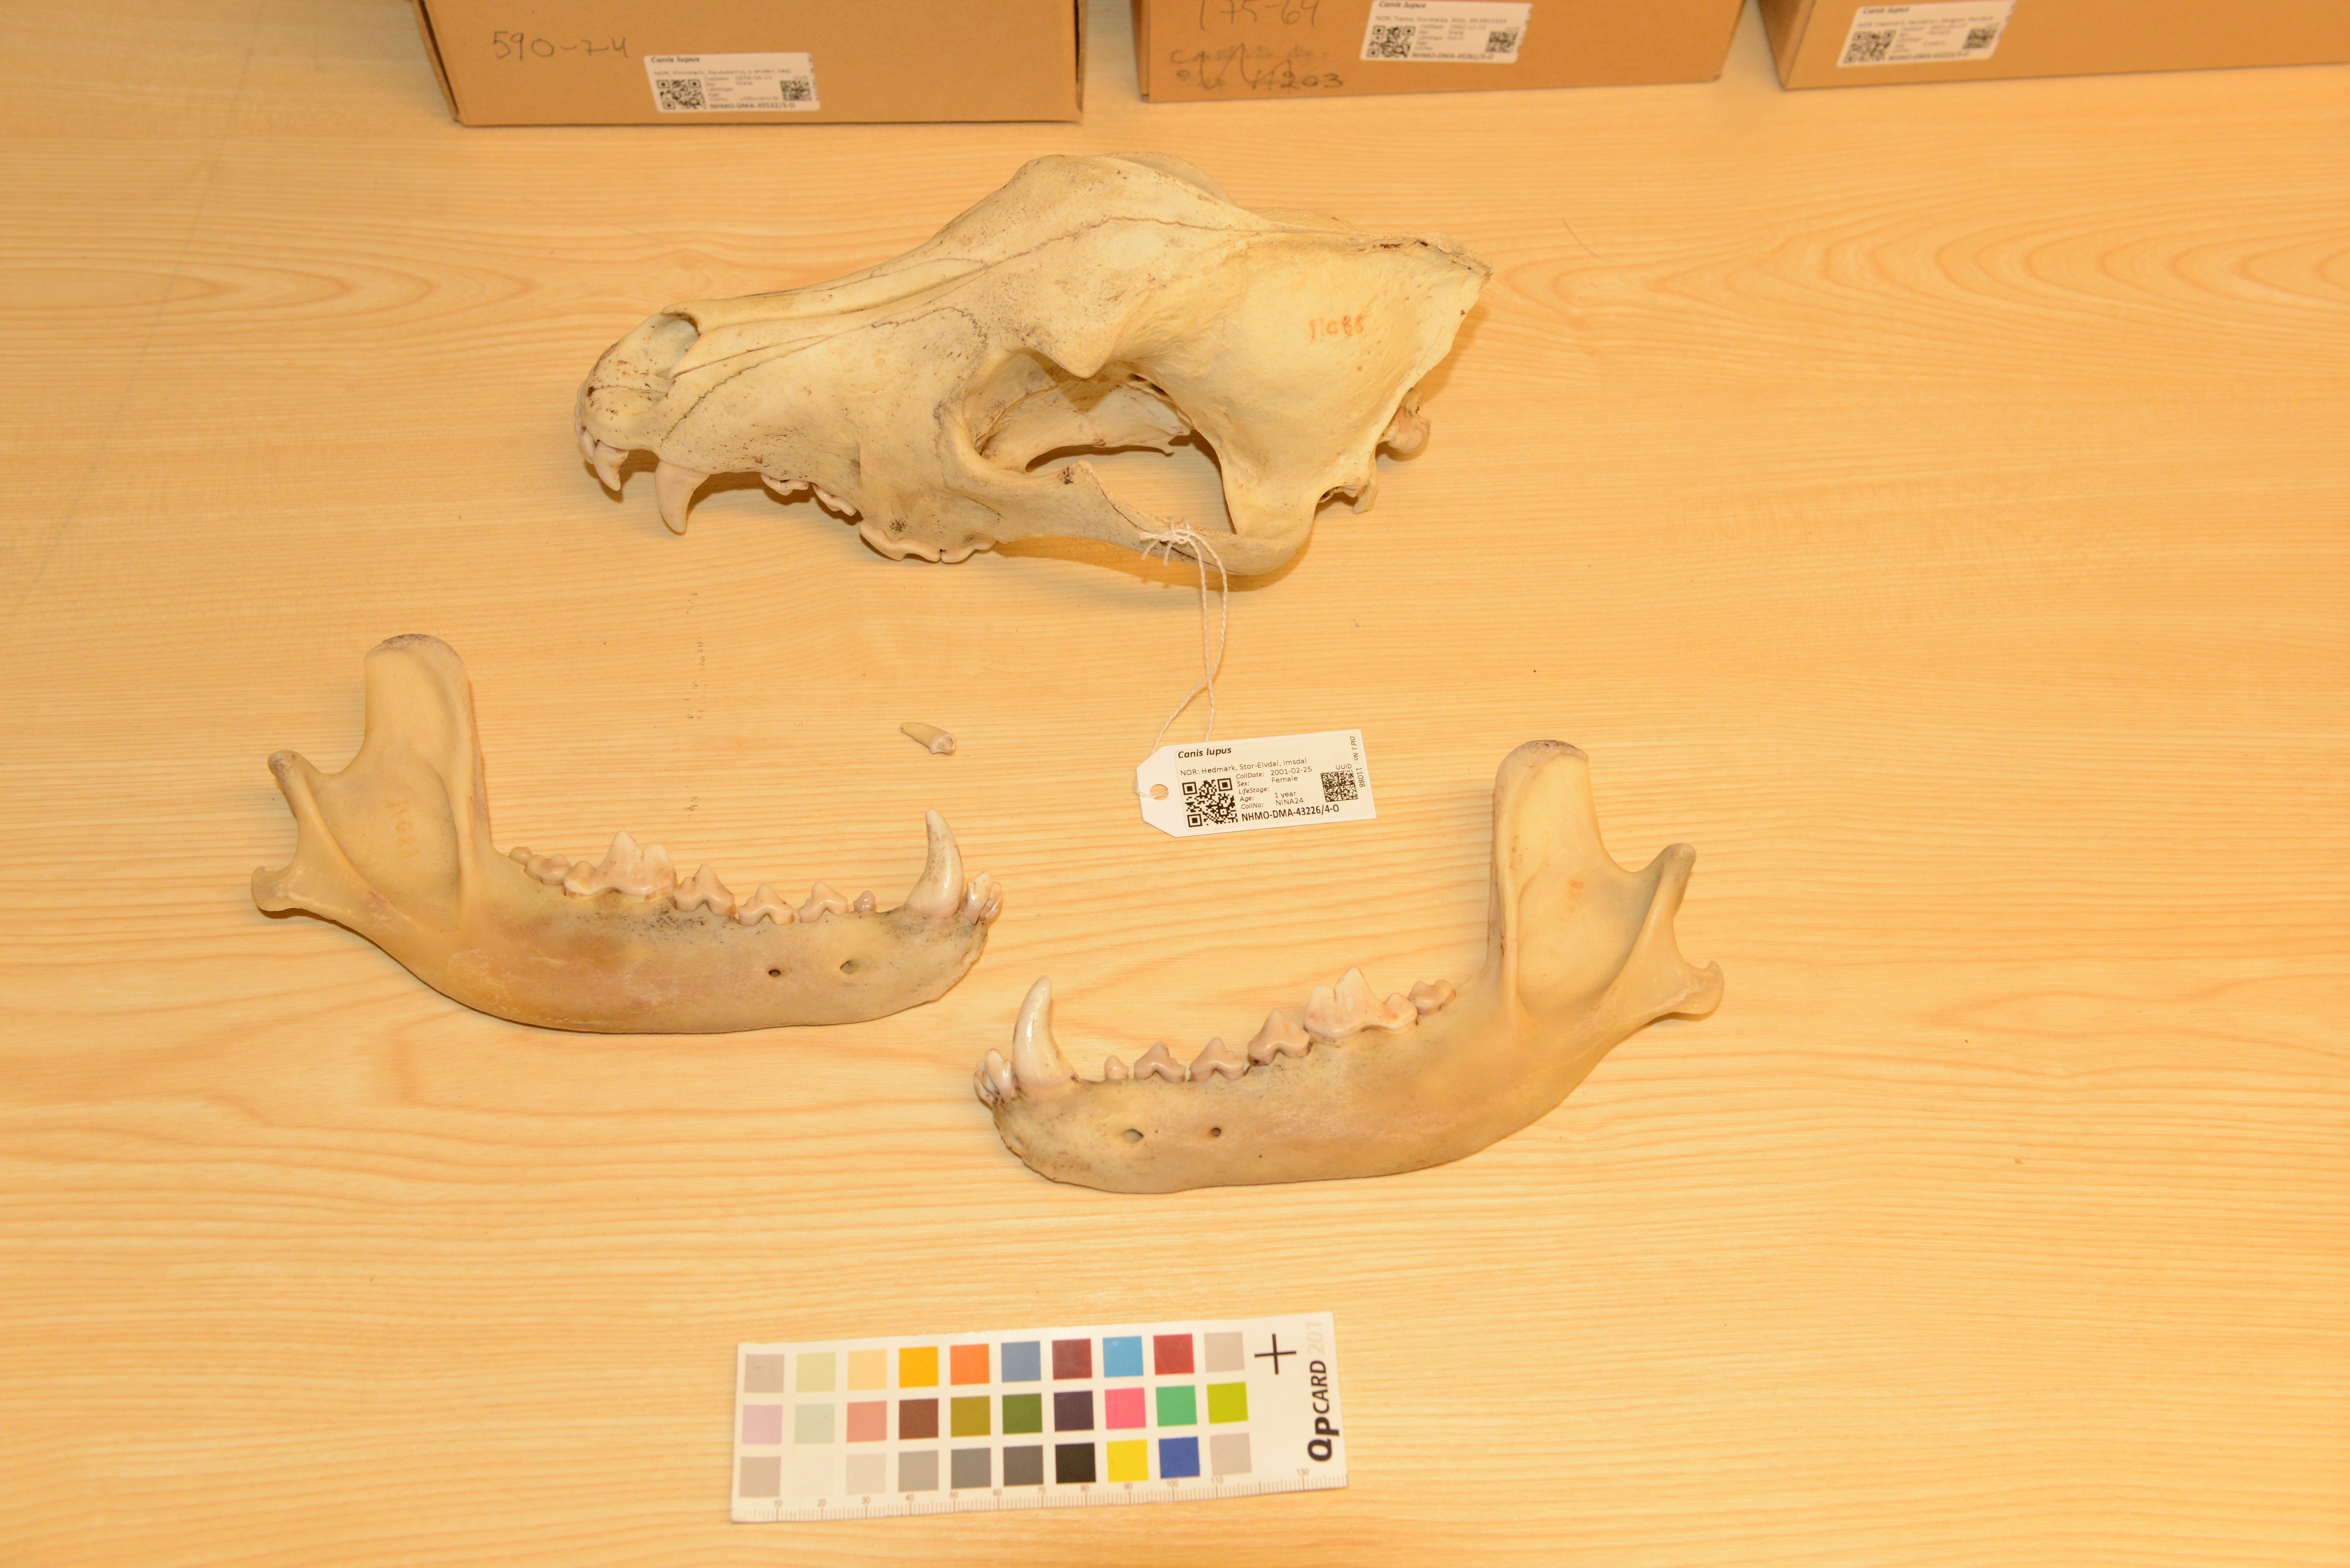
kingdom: Animalia
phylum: Chordata
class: Mammalia
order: Carnivora
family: Canidae
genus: Canis
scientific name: Canis lupus
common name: Gray wolf
